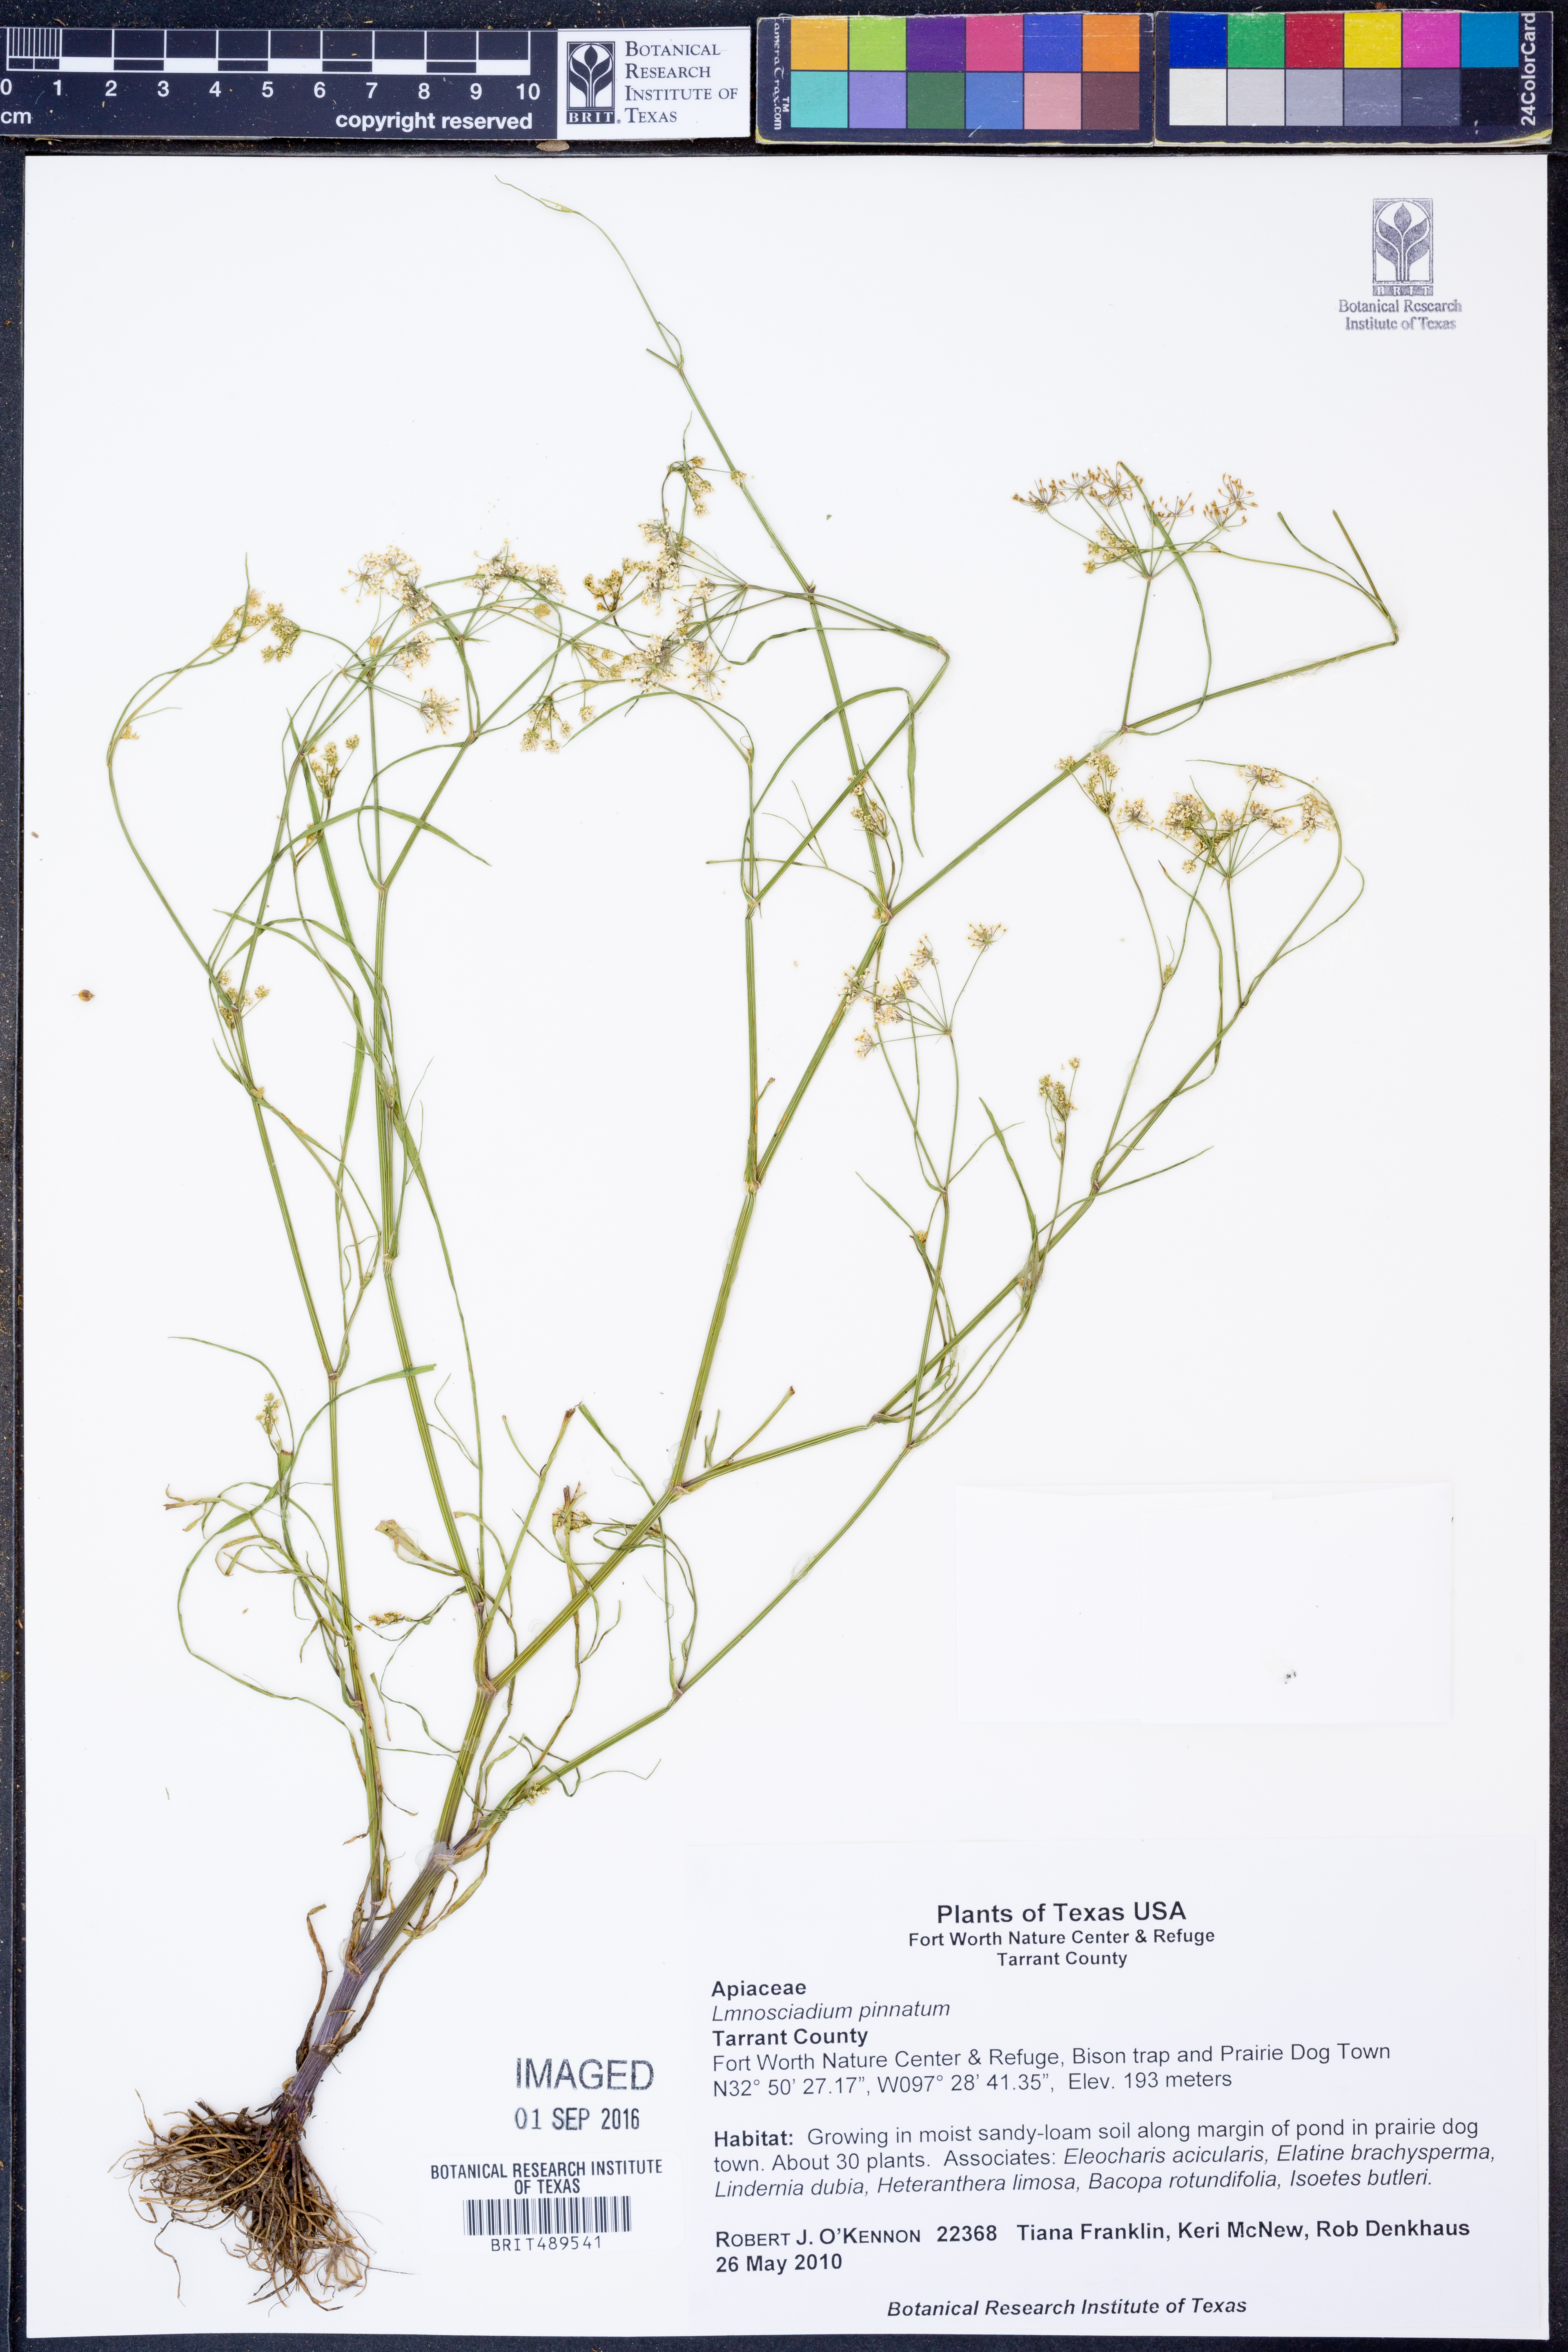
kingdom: Plantae
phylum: Tracheophyta
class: Magnoliopsida
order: Apiales
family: Apiaceae
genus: Limnosciadium
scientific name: Limnosciadium pinnatum
